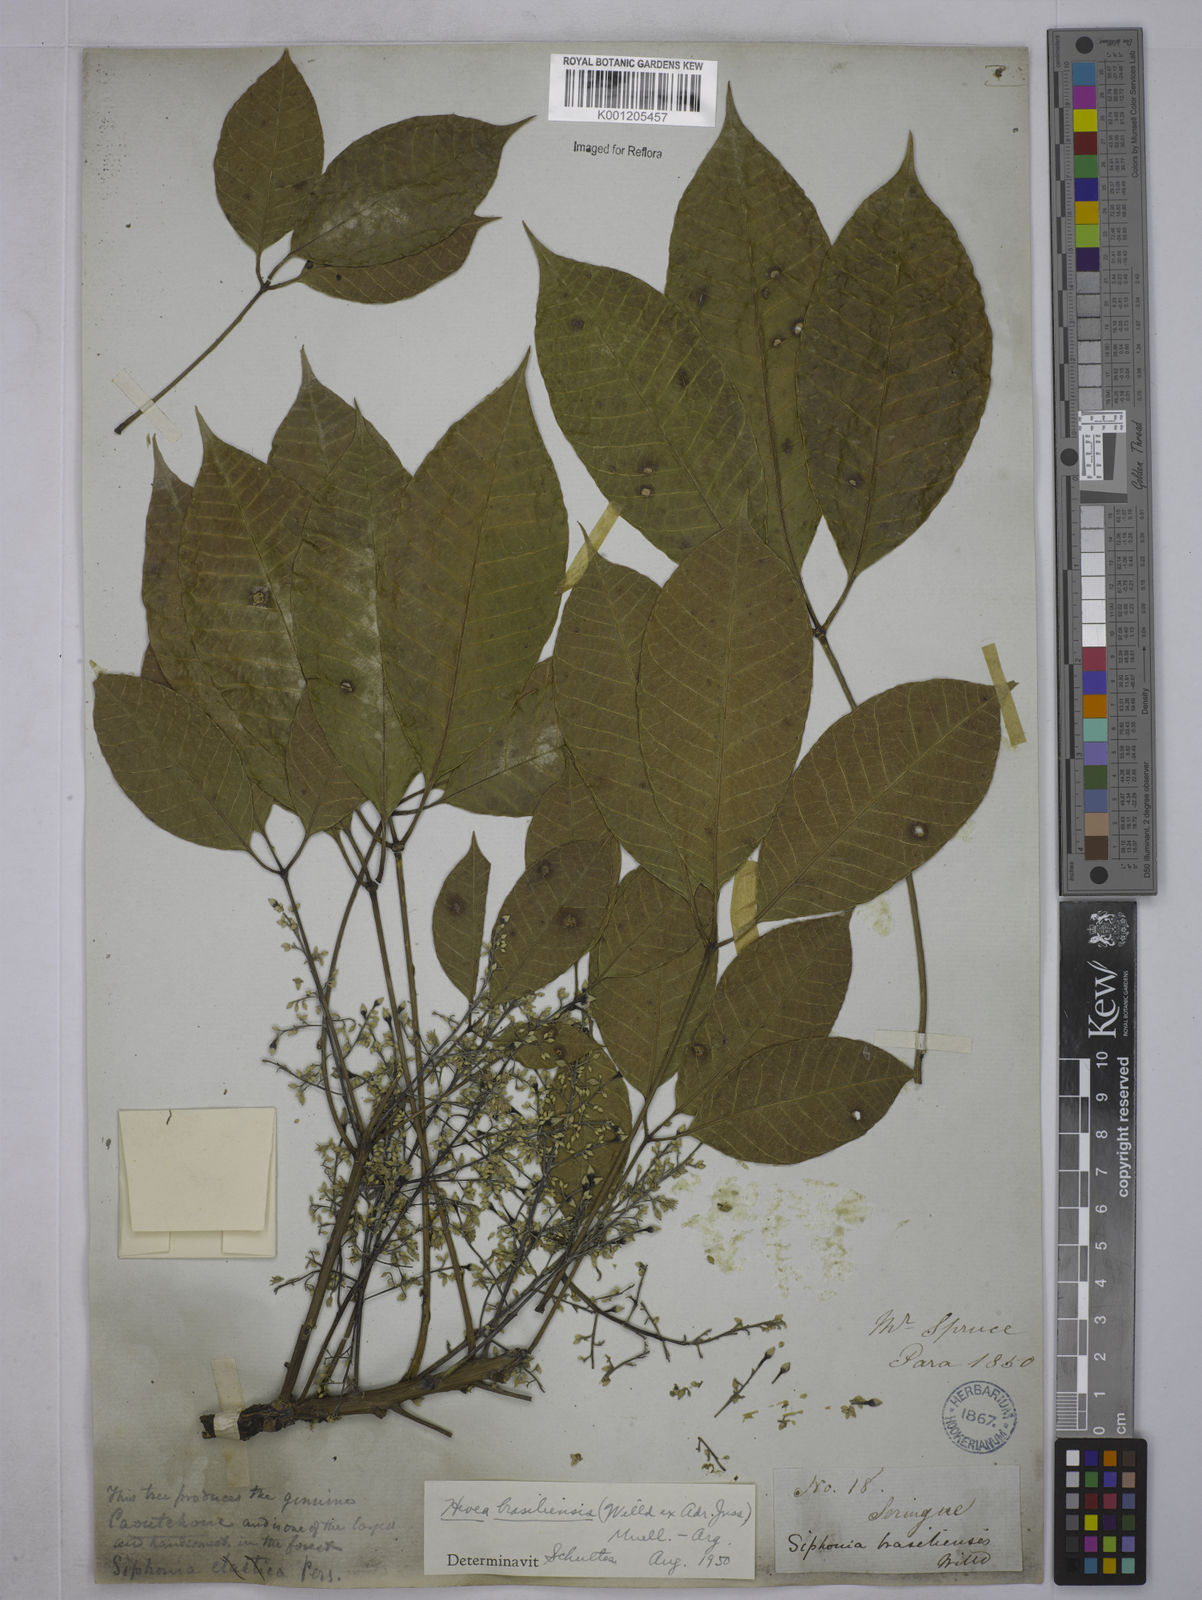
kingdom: Plantae
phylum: Tracheophyta
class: Magnoliopsida
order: Malpighiales
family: Euphorbiaceae
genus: Hevea
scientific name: Hevea
